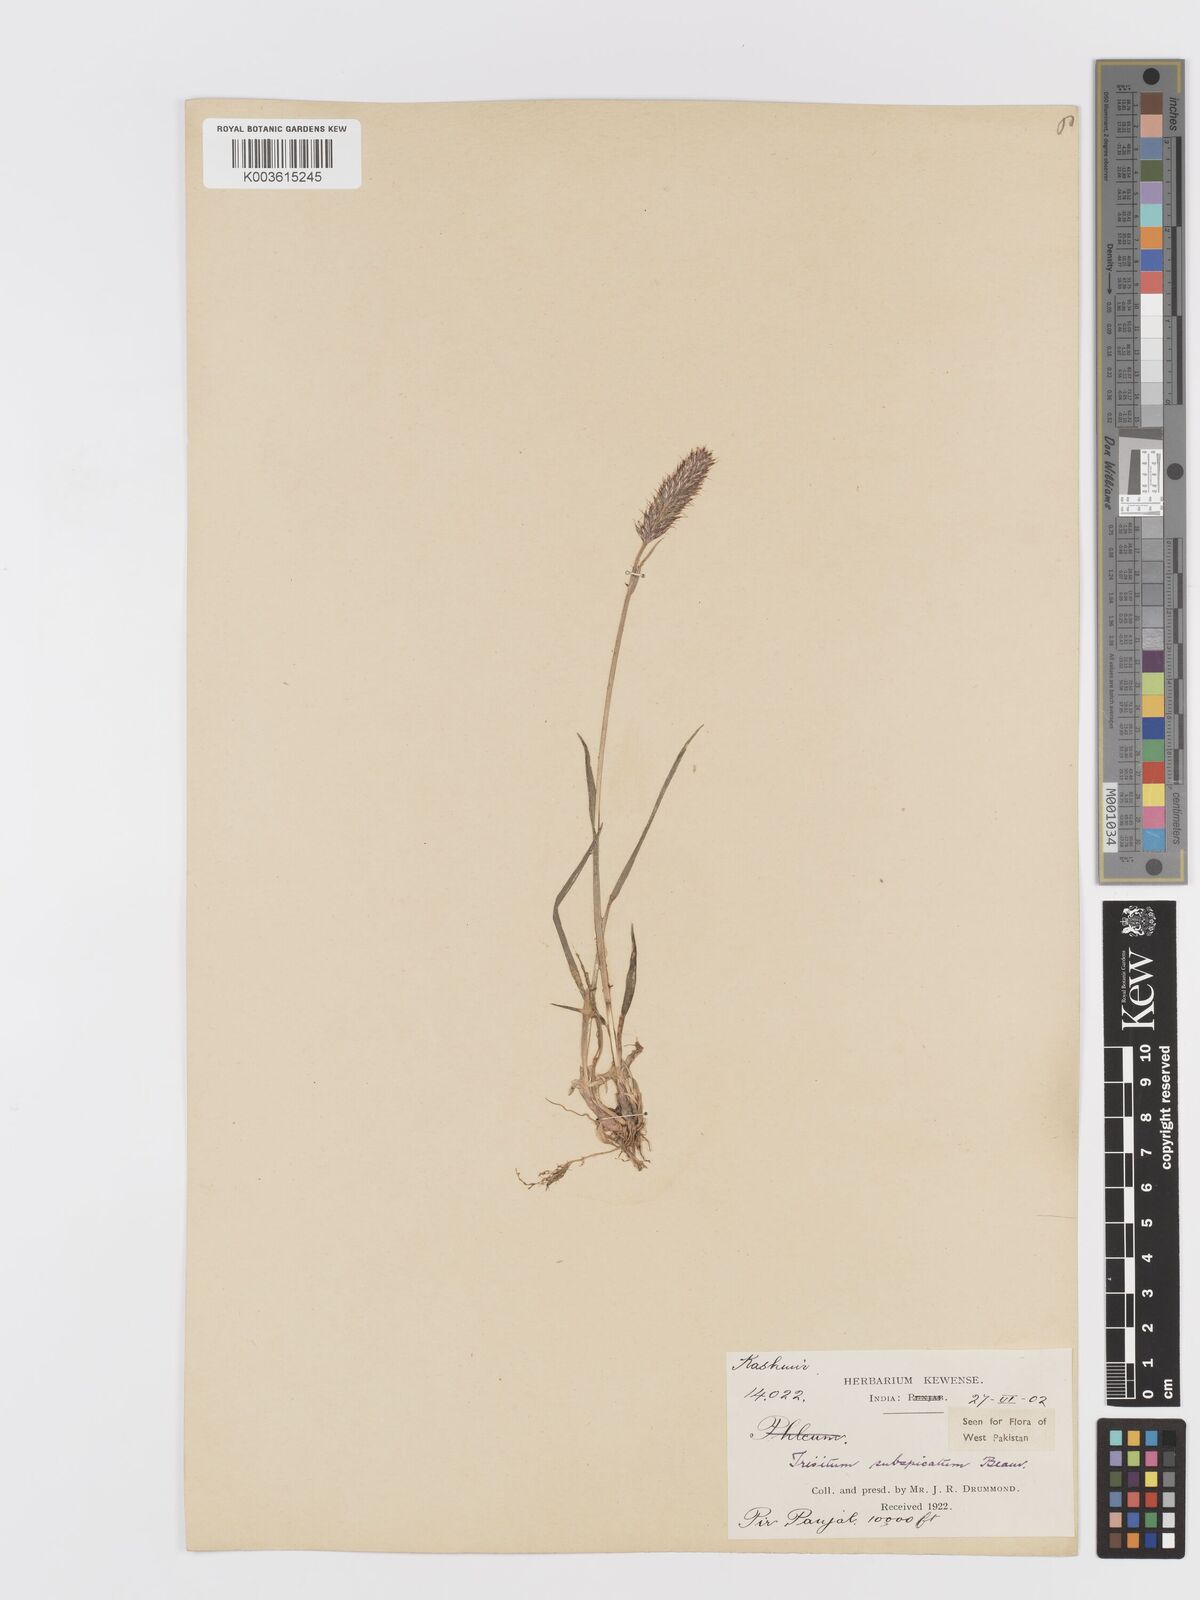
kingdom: Plantae
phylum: Tracheophyta
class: Liliopsida
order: Poales
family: Poaceae
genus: Koeleria
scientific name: Koeleria spicata
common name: Mountain trisetum
